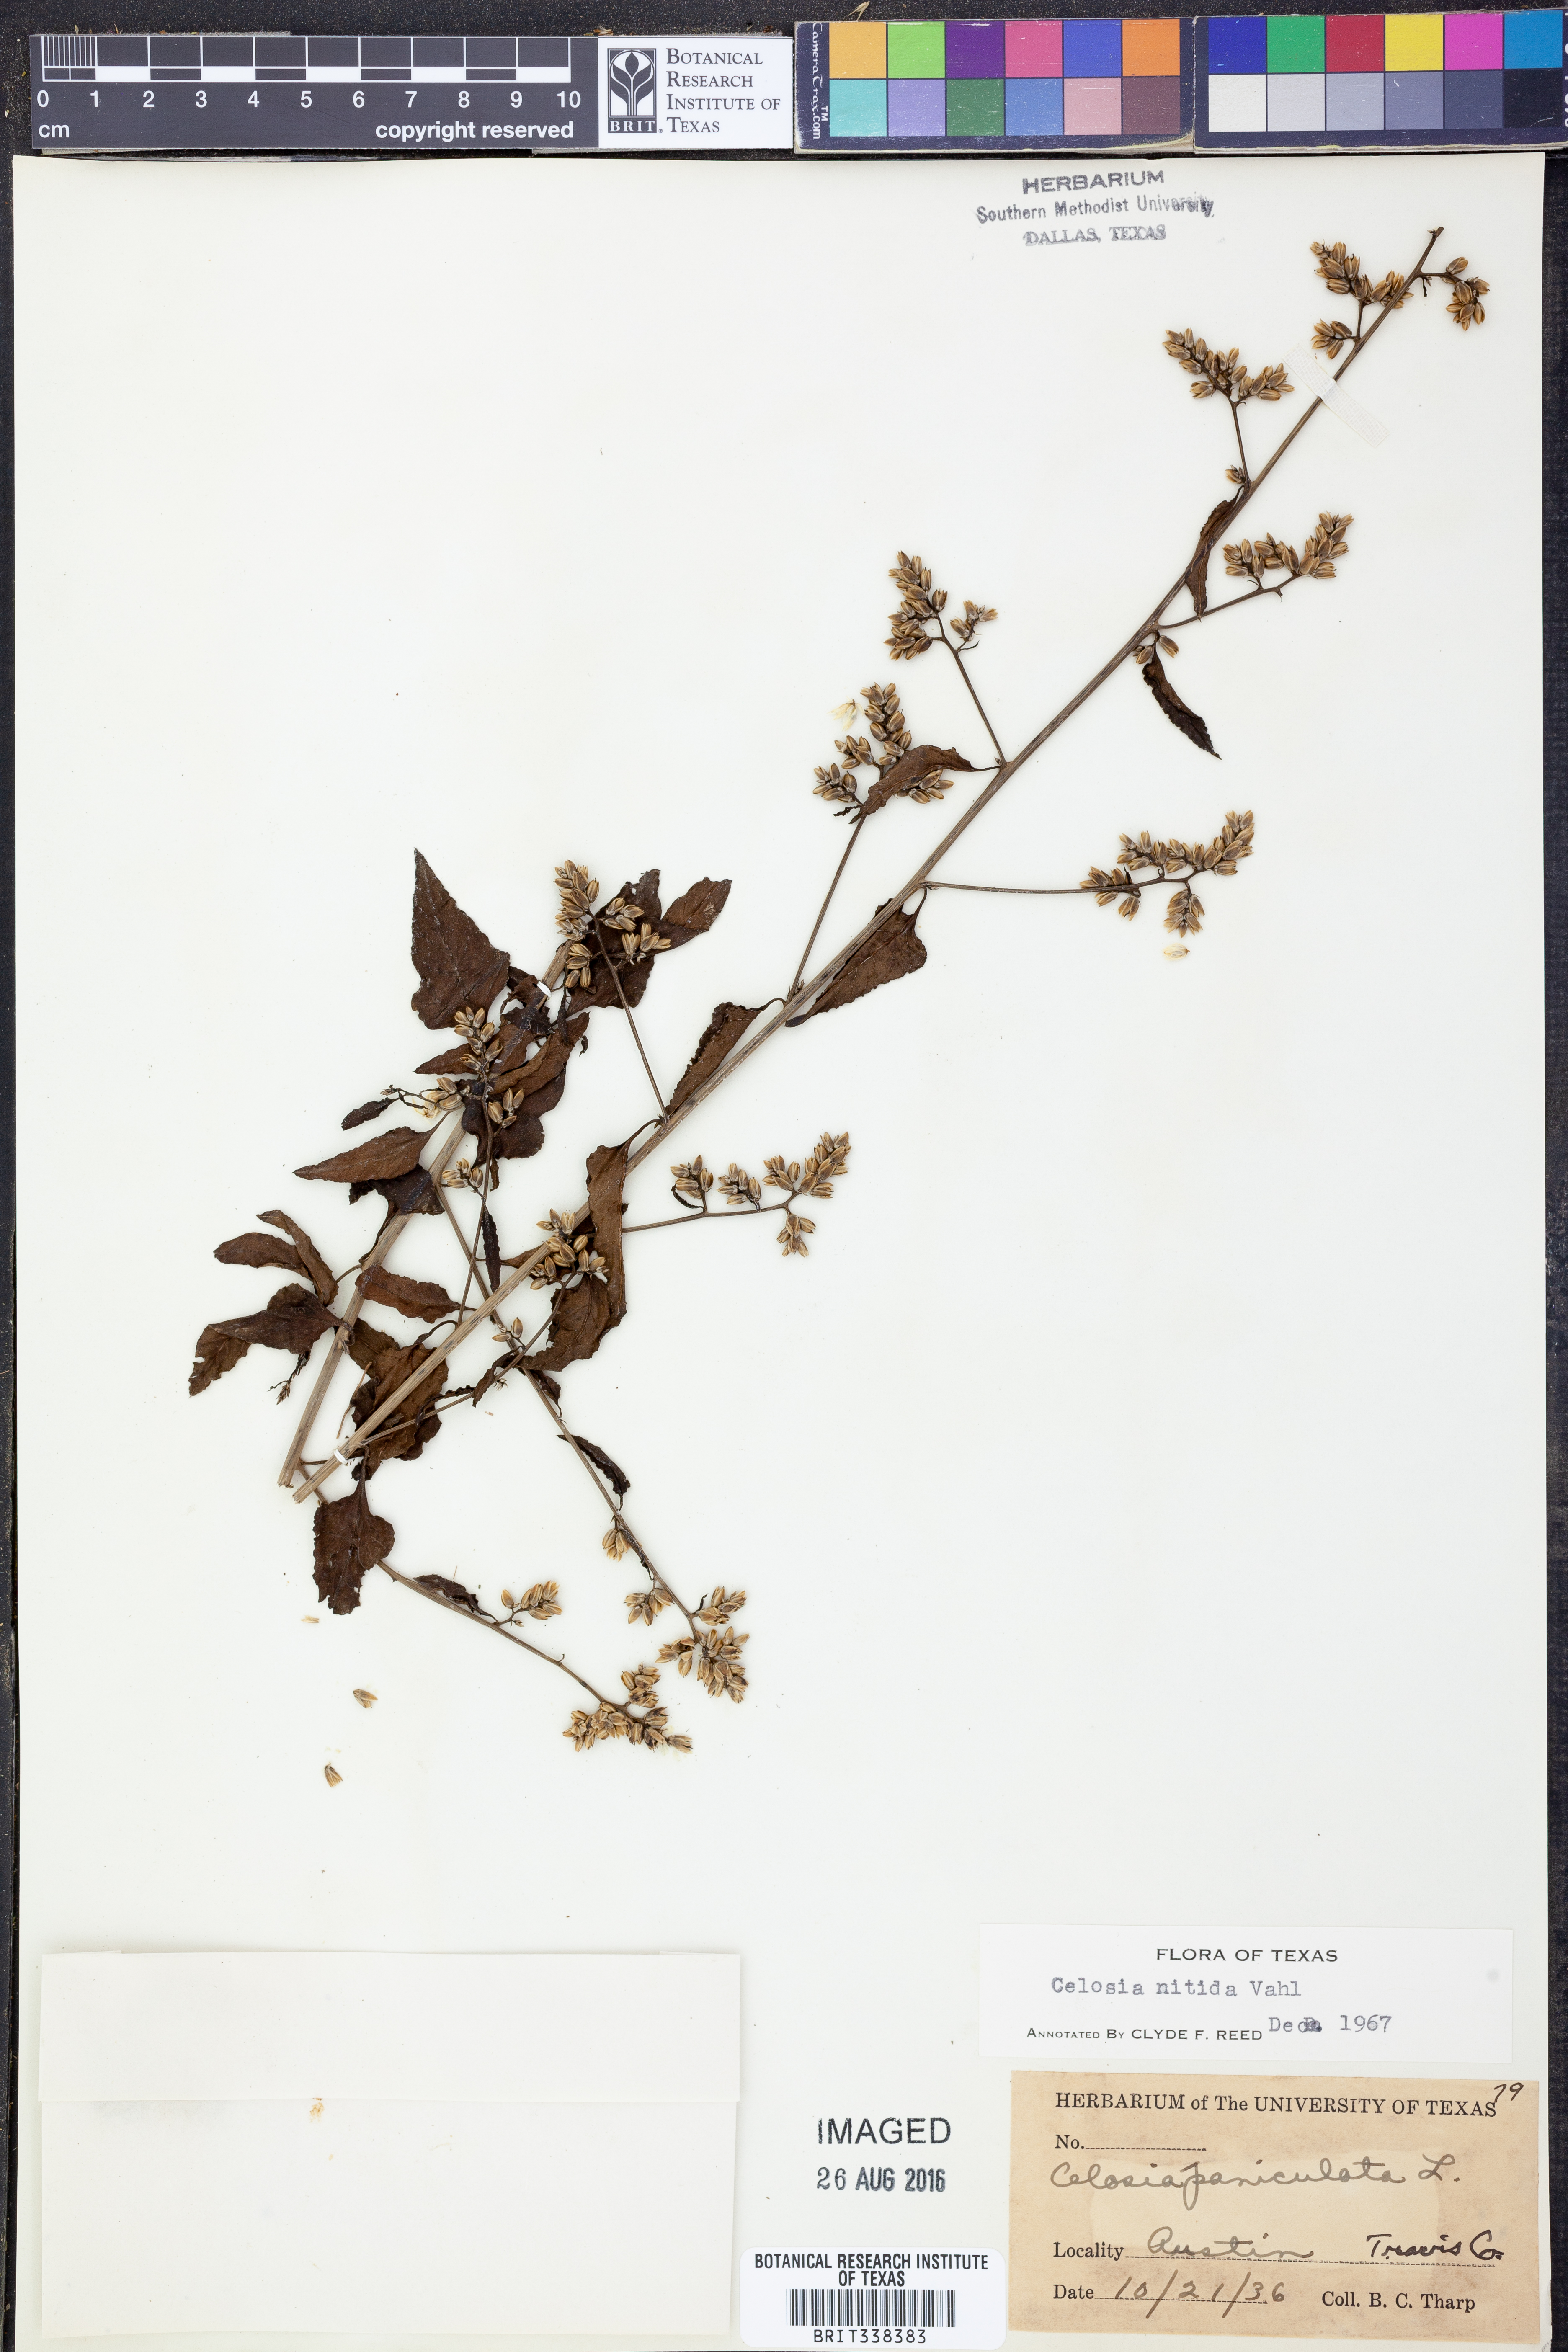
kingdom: Plantae
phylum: Tracheophyta
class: Magnoliopsida
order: Caryophyllales
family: Amaranthaceae
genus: Celosia
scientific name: Celosia nitida
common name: West indian cock's comb
